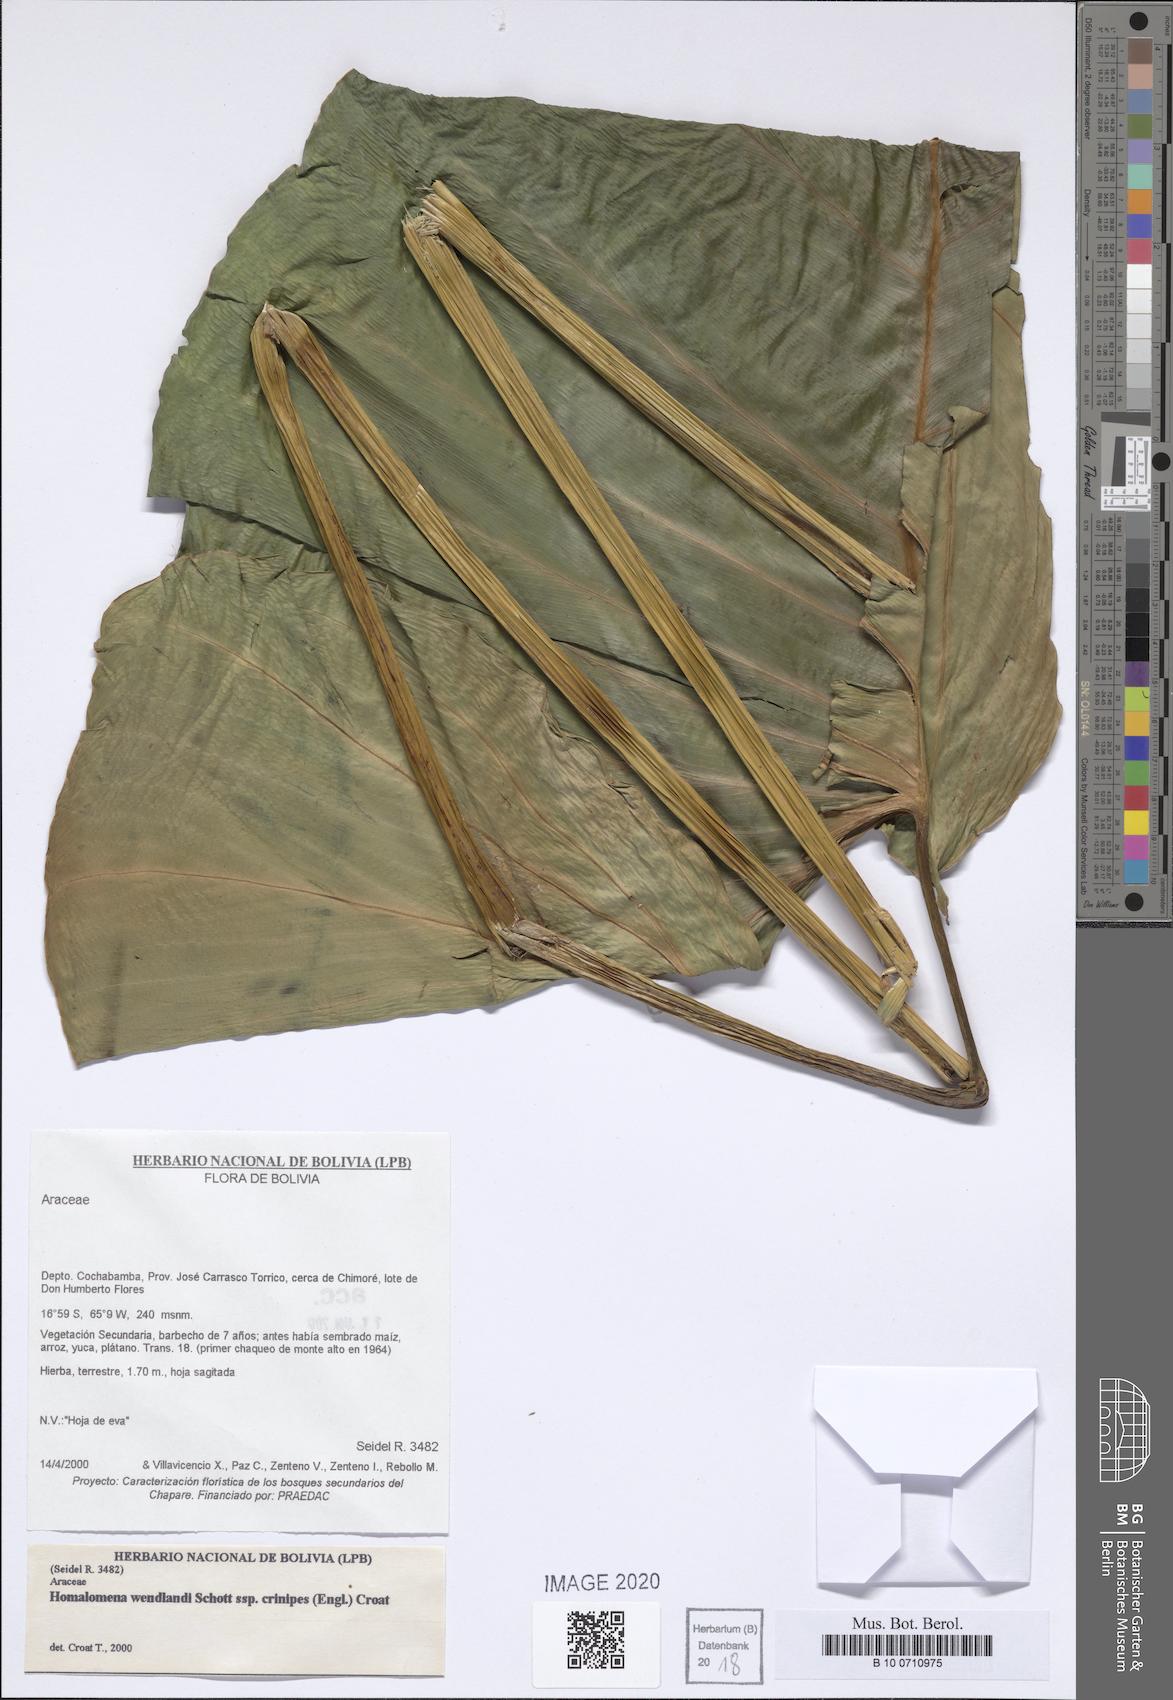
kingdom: Plantae
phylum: Tracheophyta
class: Liliopsida
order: Alismatales
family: Araceae
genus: Adelonema
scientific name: Adelonema crinipes
